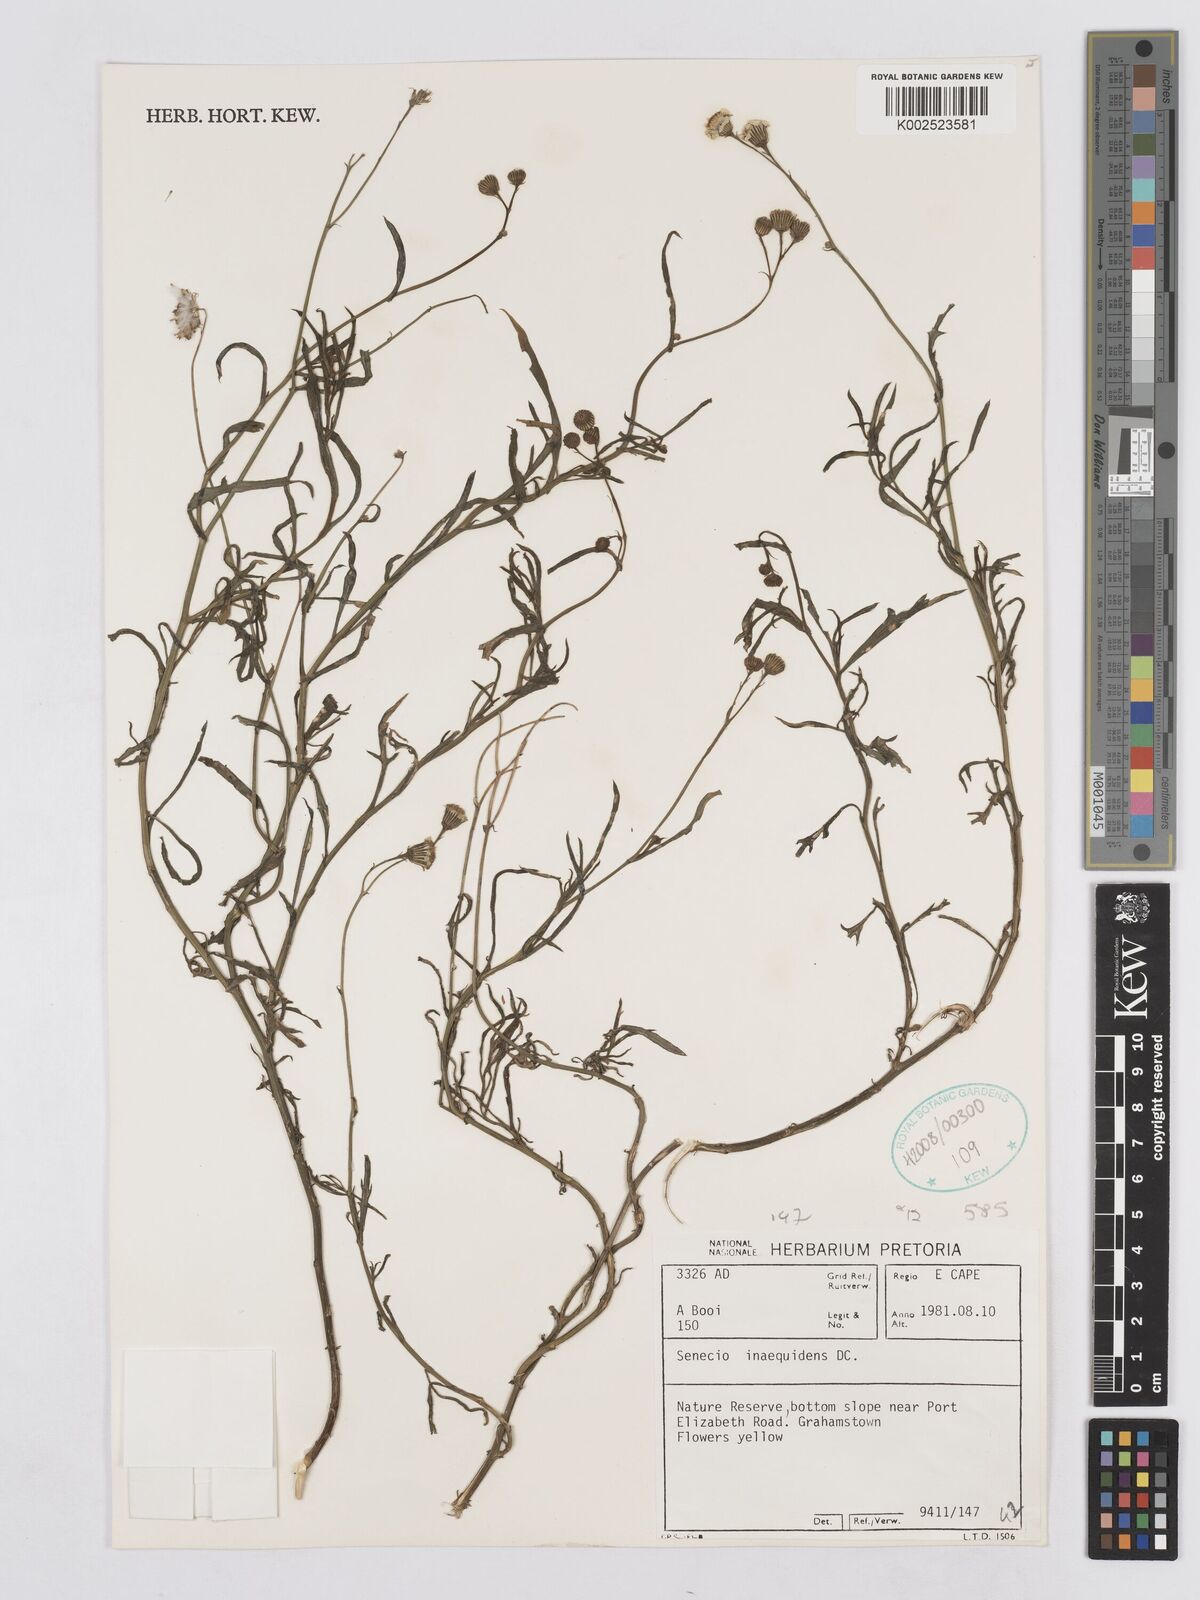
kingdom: Plantae
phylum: Tracheophyta
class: Magnoliopsida
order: Asterales
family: Asteraceae
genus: Senecio
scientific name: Senecio inaequidens
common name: Narrow-leaved ragwort
